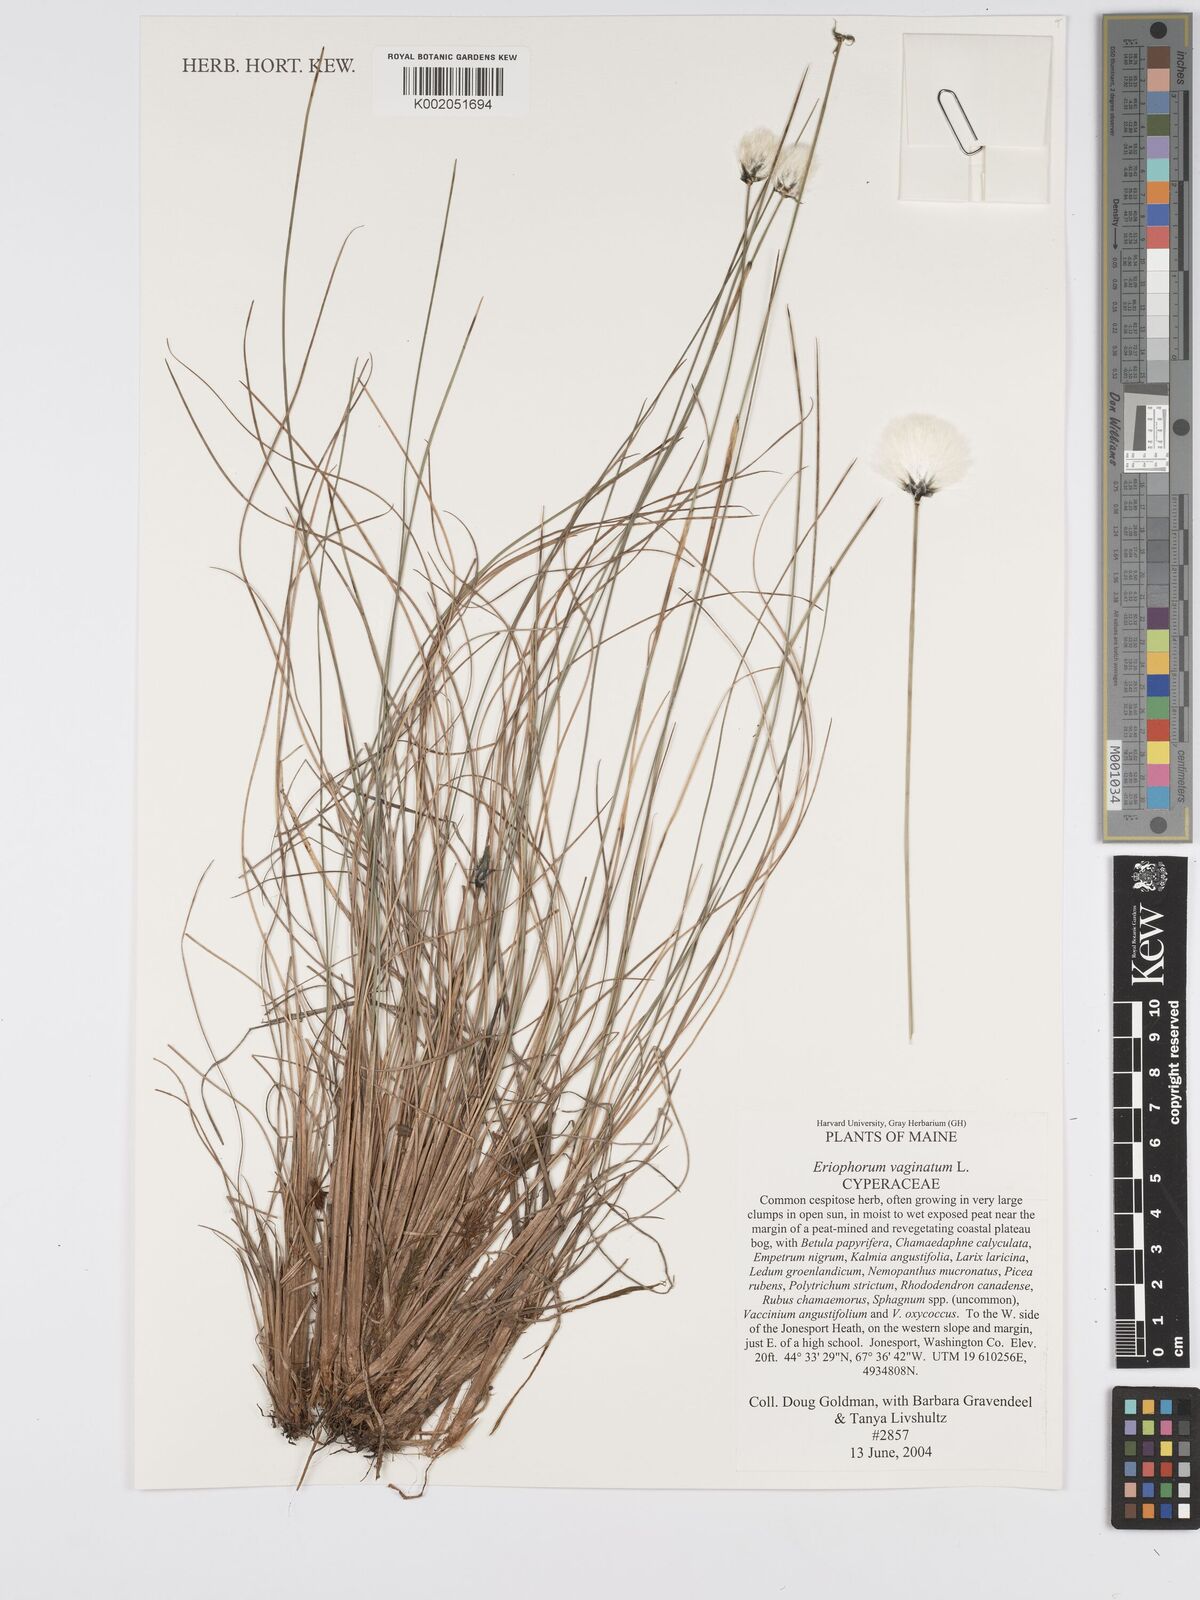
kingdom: Plantae
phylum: Tracheophyta
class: Liliopsida
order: Poales
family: Cyperaceae
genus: Eriophorum
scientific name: Eriophorum vaginatum
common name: Hare's-tail cottongrass
